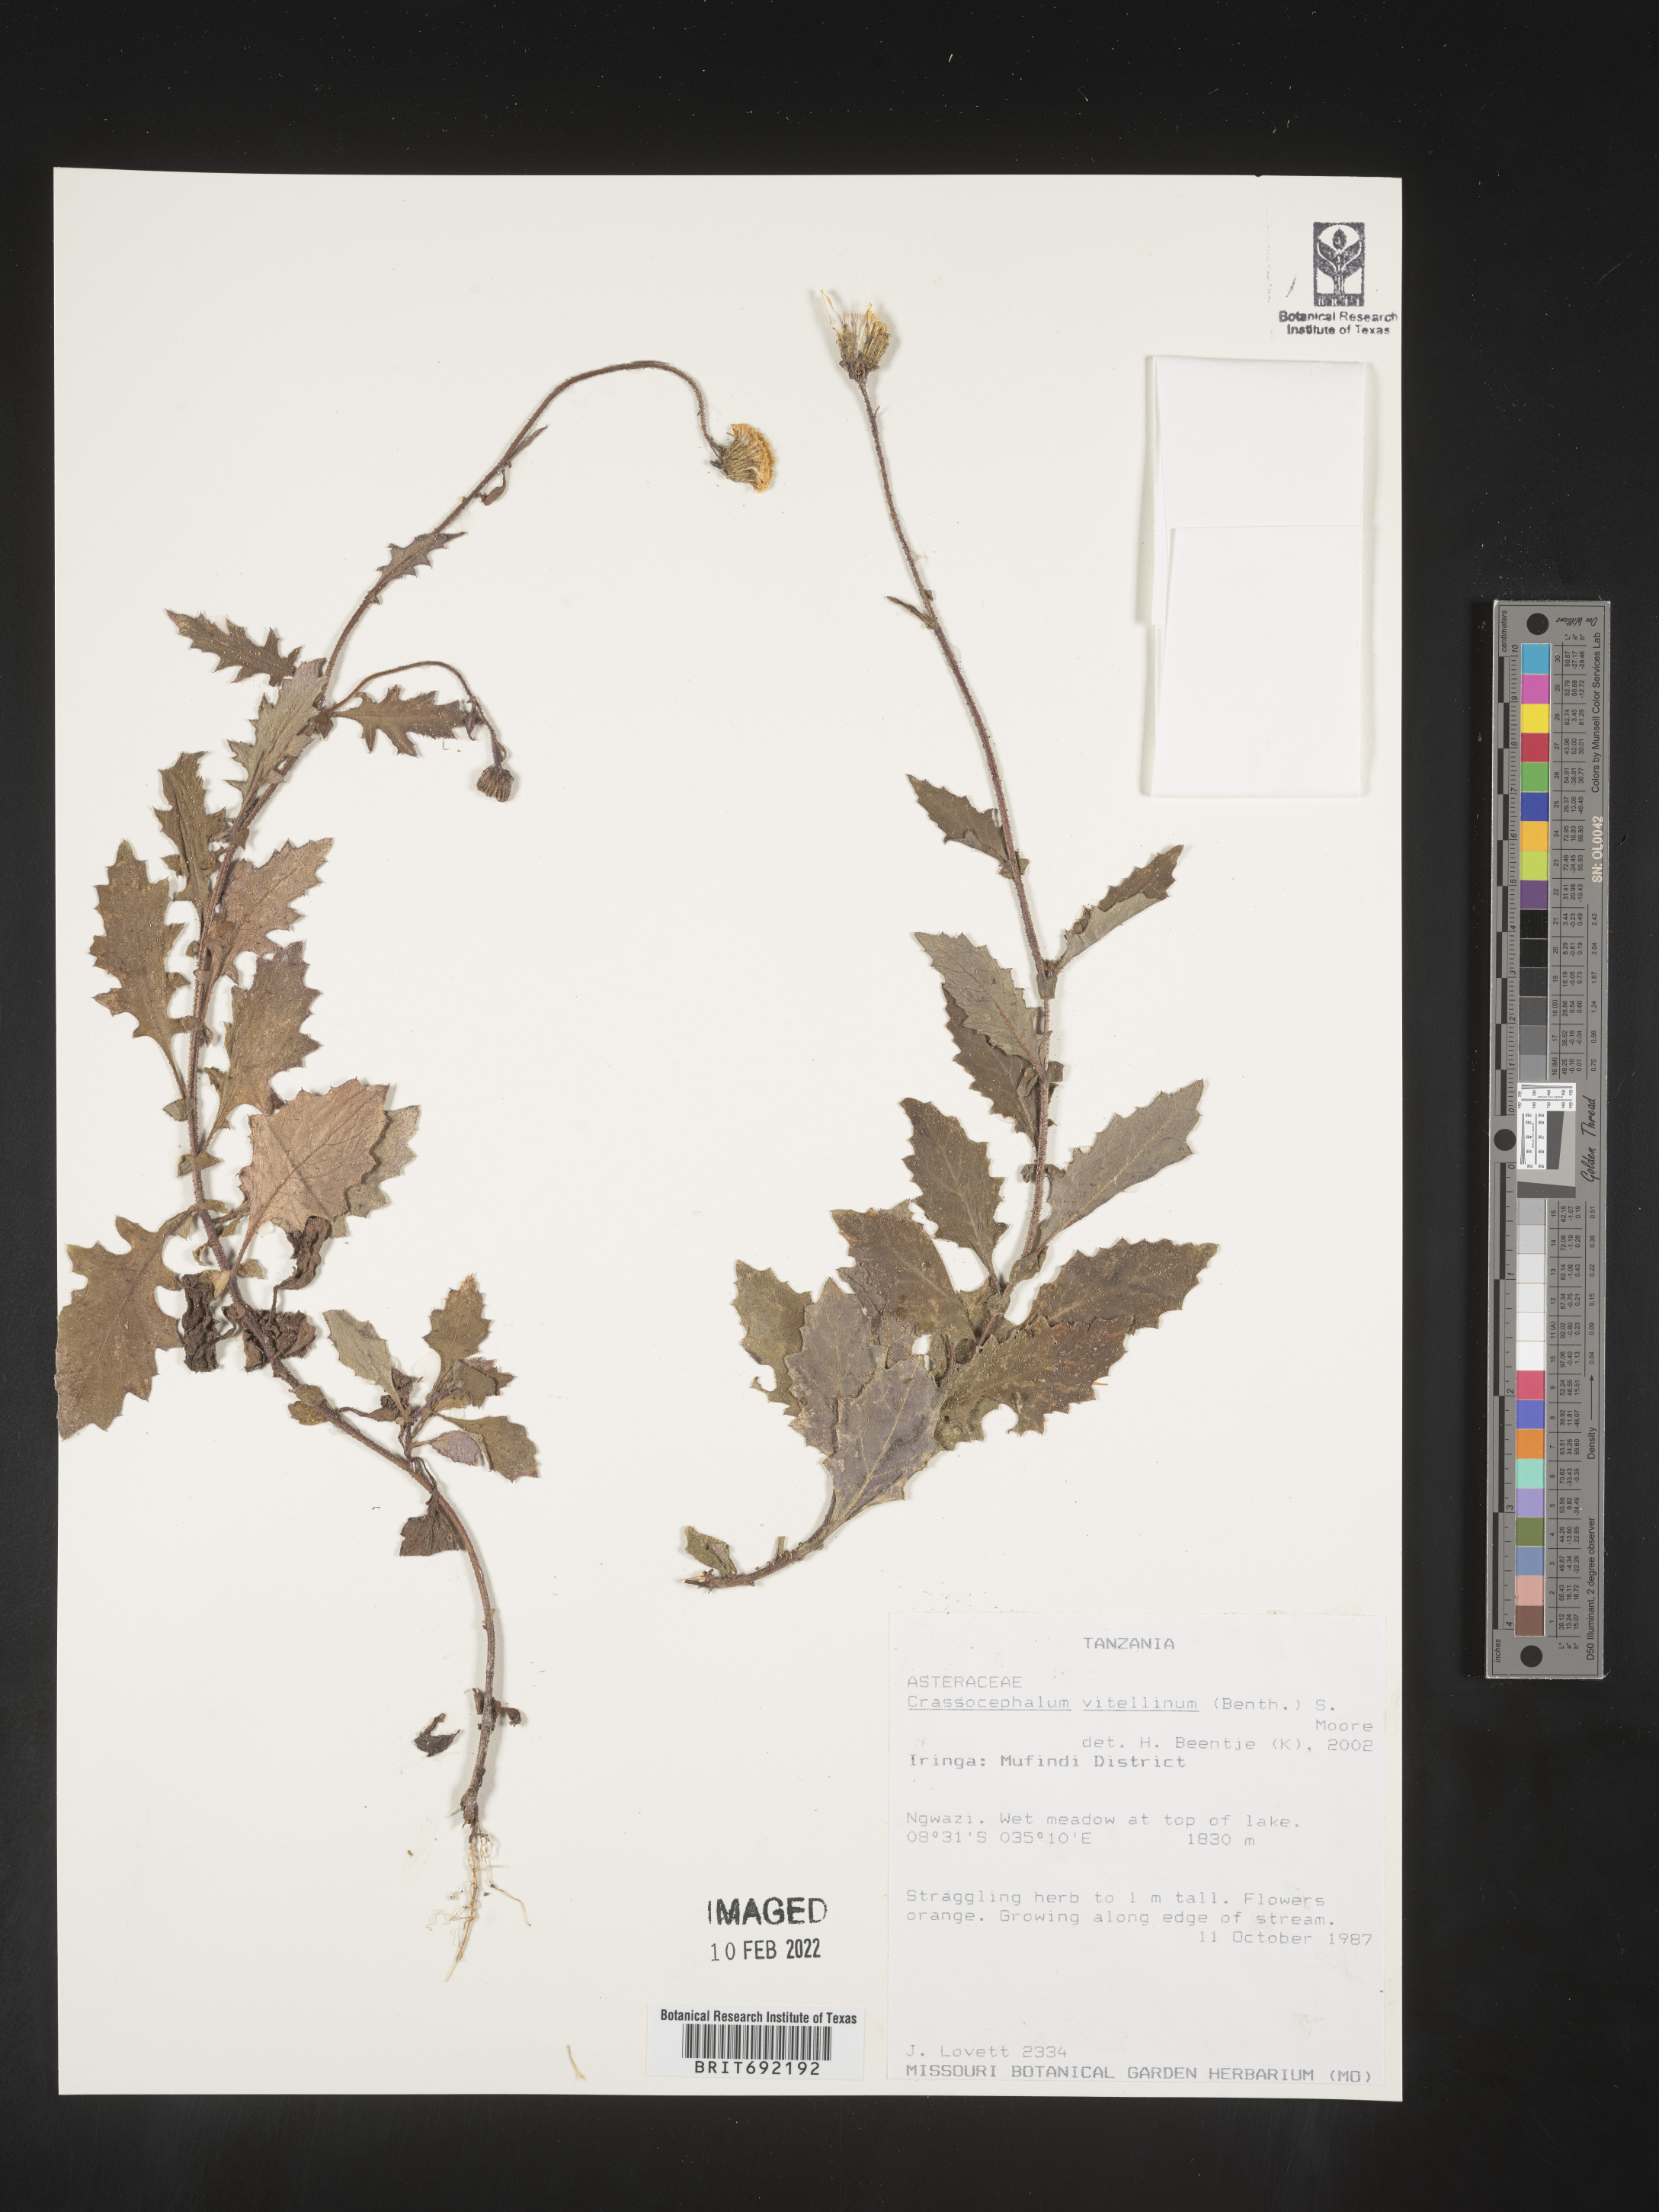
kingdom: Plantae
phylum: Tracheophyta
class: Magnoliopsida
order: Asterales
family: Asteraceae
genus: Crassocephalum
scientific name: Crassocephalum
